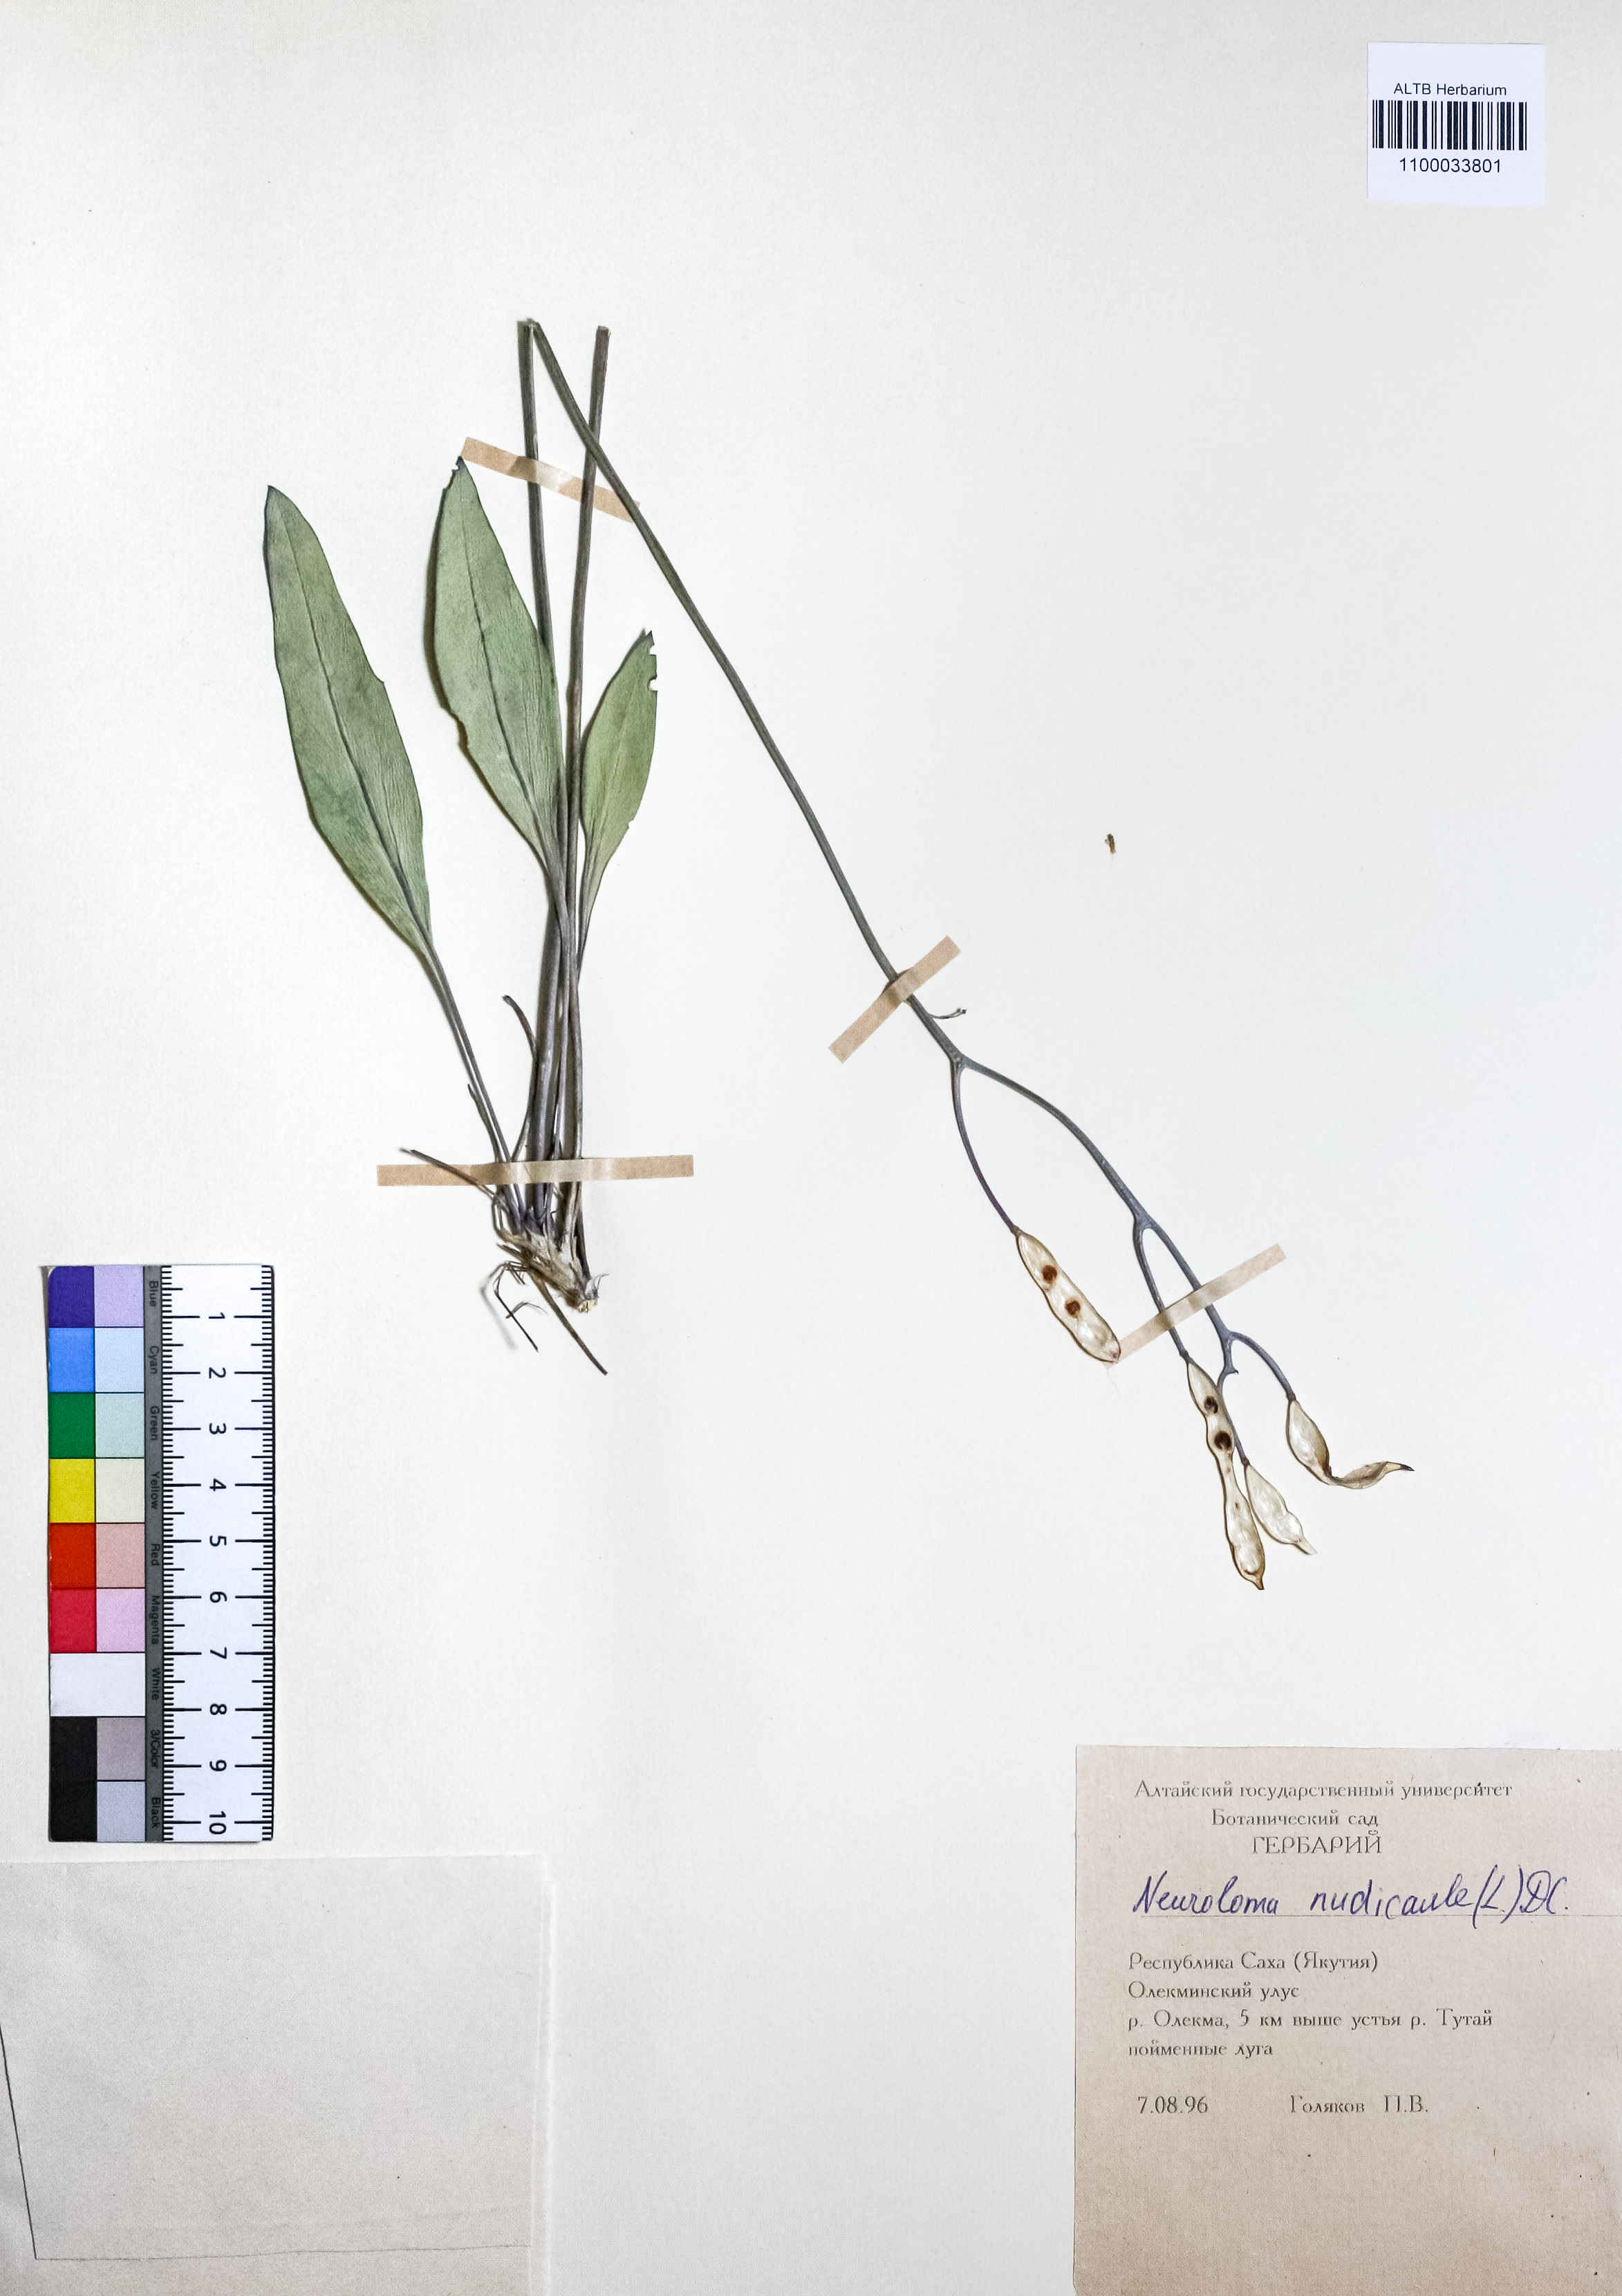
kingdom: Plantae
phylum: Tracheophyta
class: Magnoliopsida
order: Brassicales
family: Brassicaceae
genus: Parrya
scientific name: Parrya nudicaulis
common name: Naked-stemmed false wallflower
